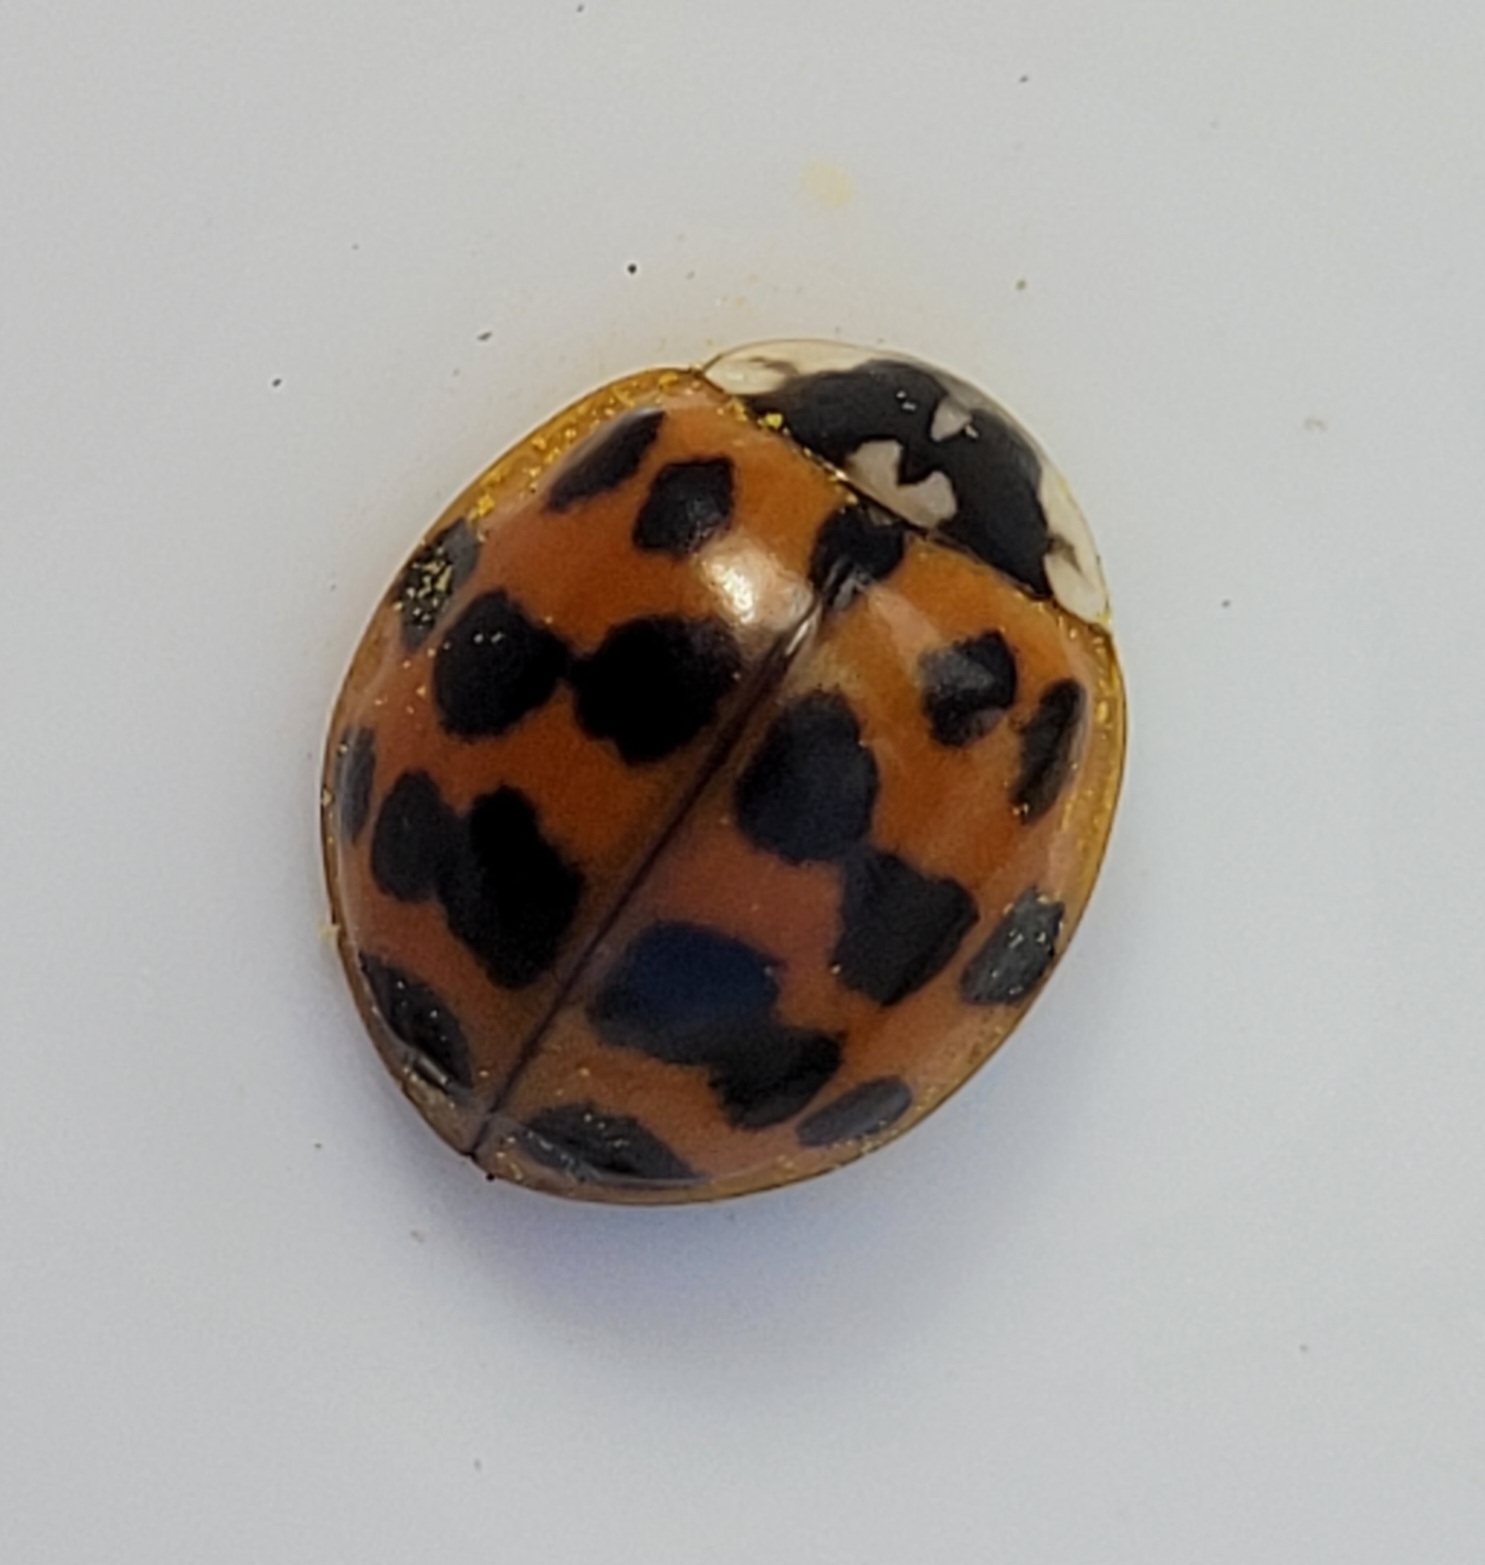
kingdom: Animalia
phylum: Arthropoda
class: Insecta
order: Coleoptera
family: Coccinellidae
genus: Harmonia
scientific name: Harmonia axyridis
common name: Harlekinmariehøne
